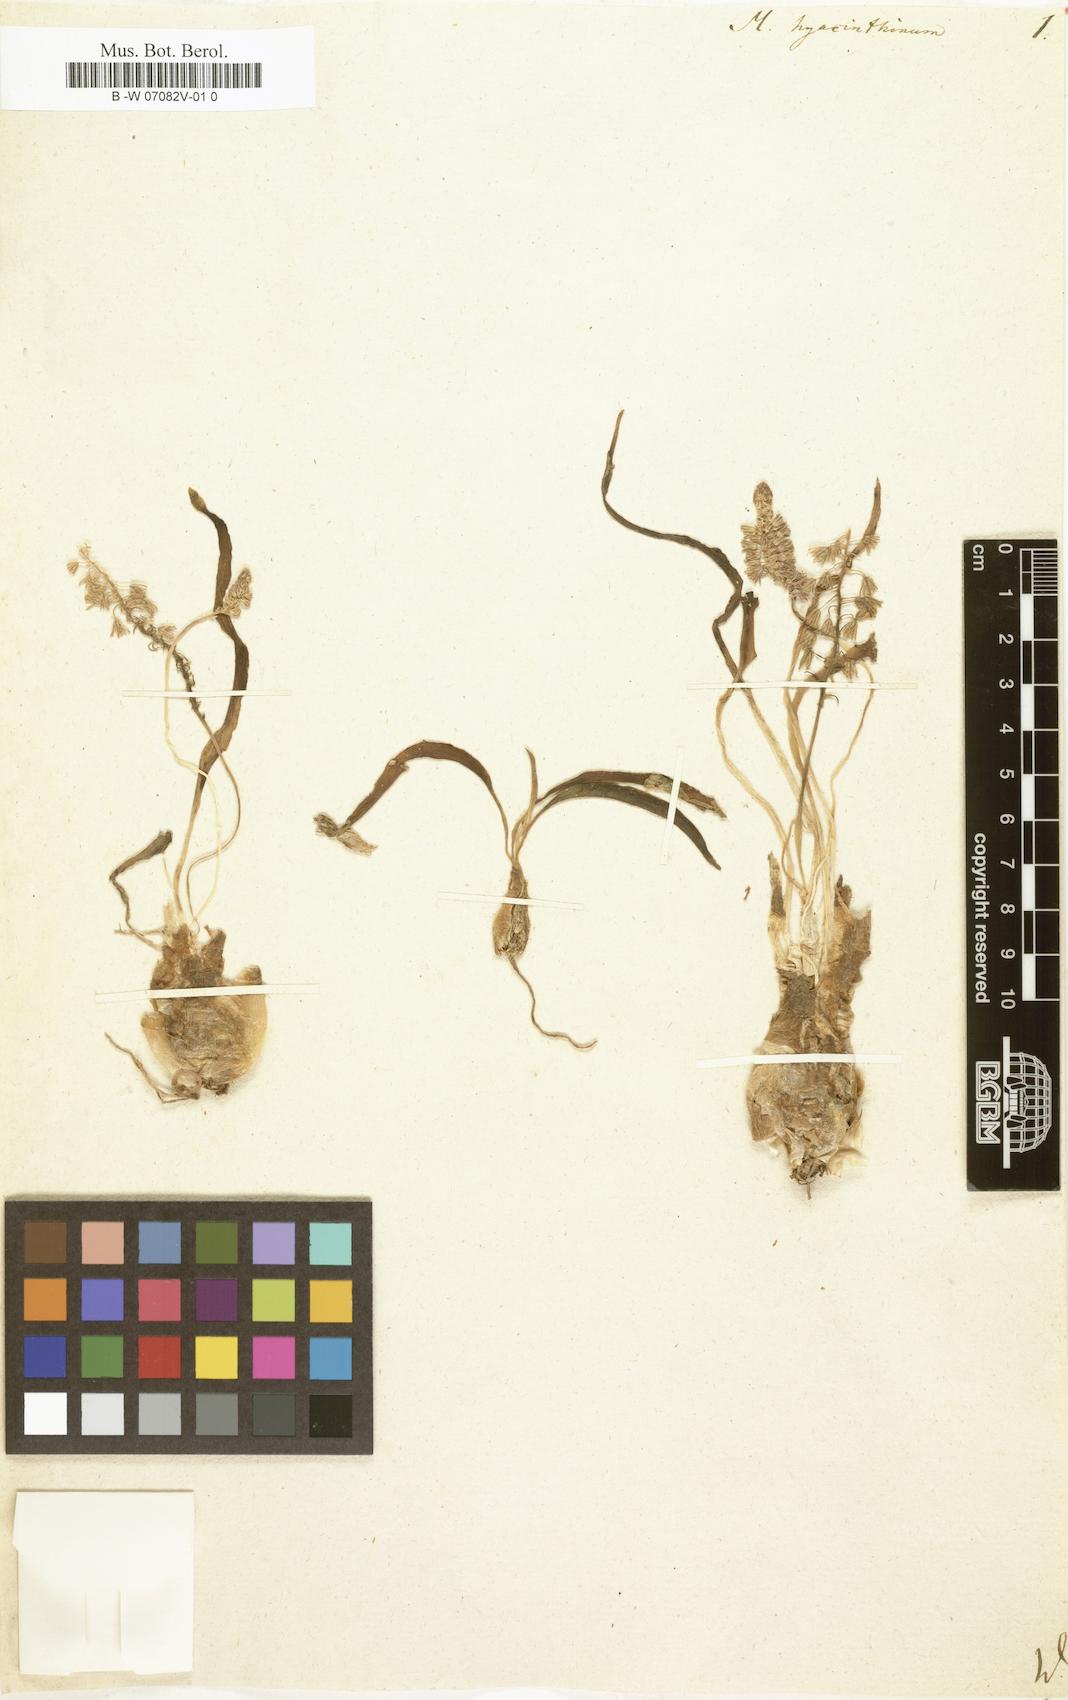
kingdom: Plantae
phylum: Tracheophyta
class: Liliopsida
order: Asparagales
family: Asparagaceae
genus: Ledebouria
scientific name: Ledebouria revoluta
